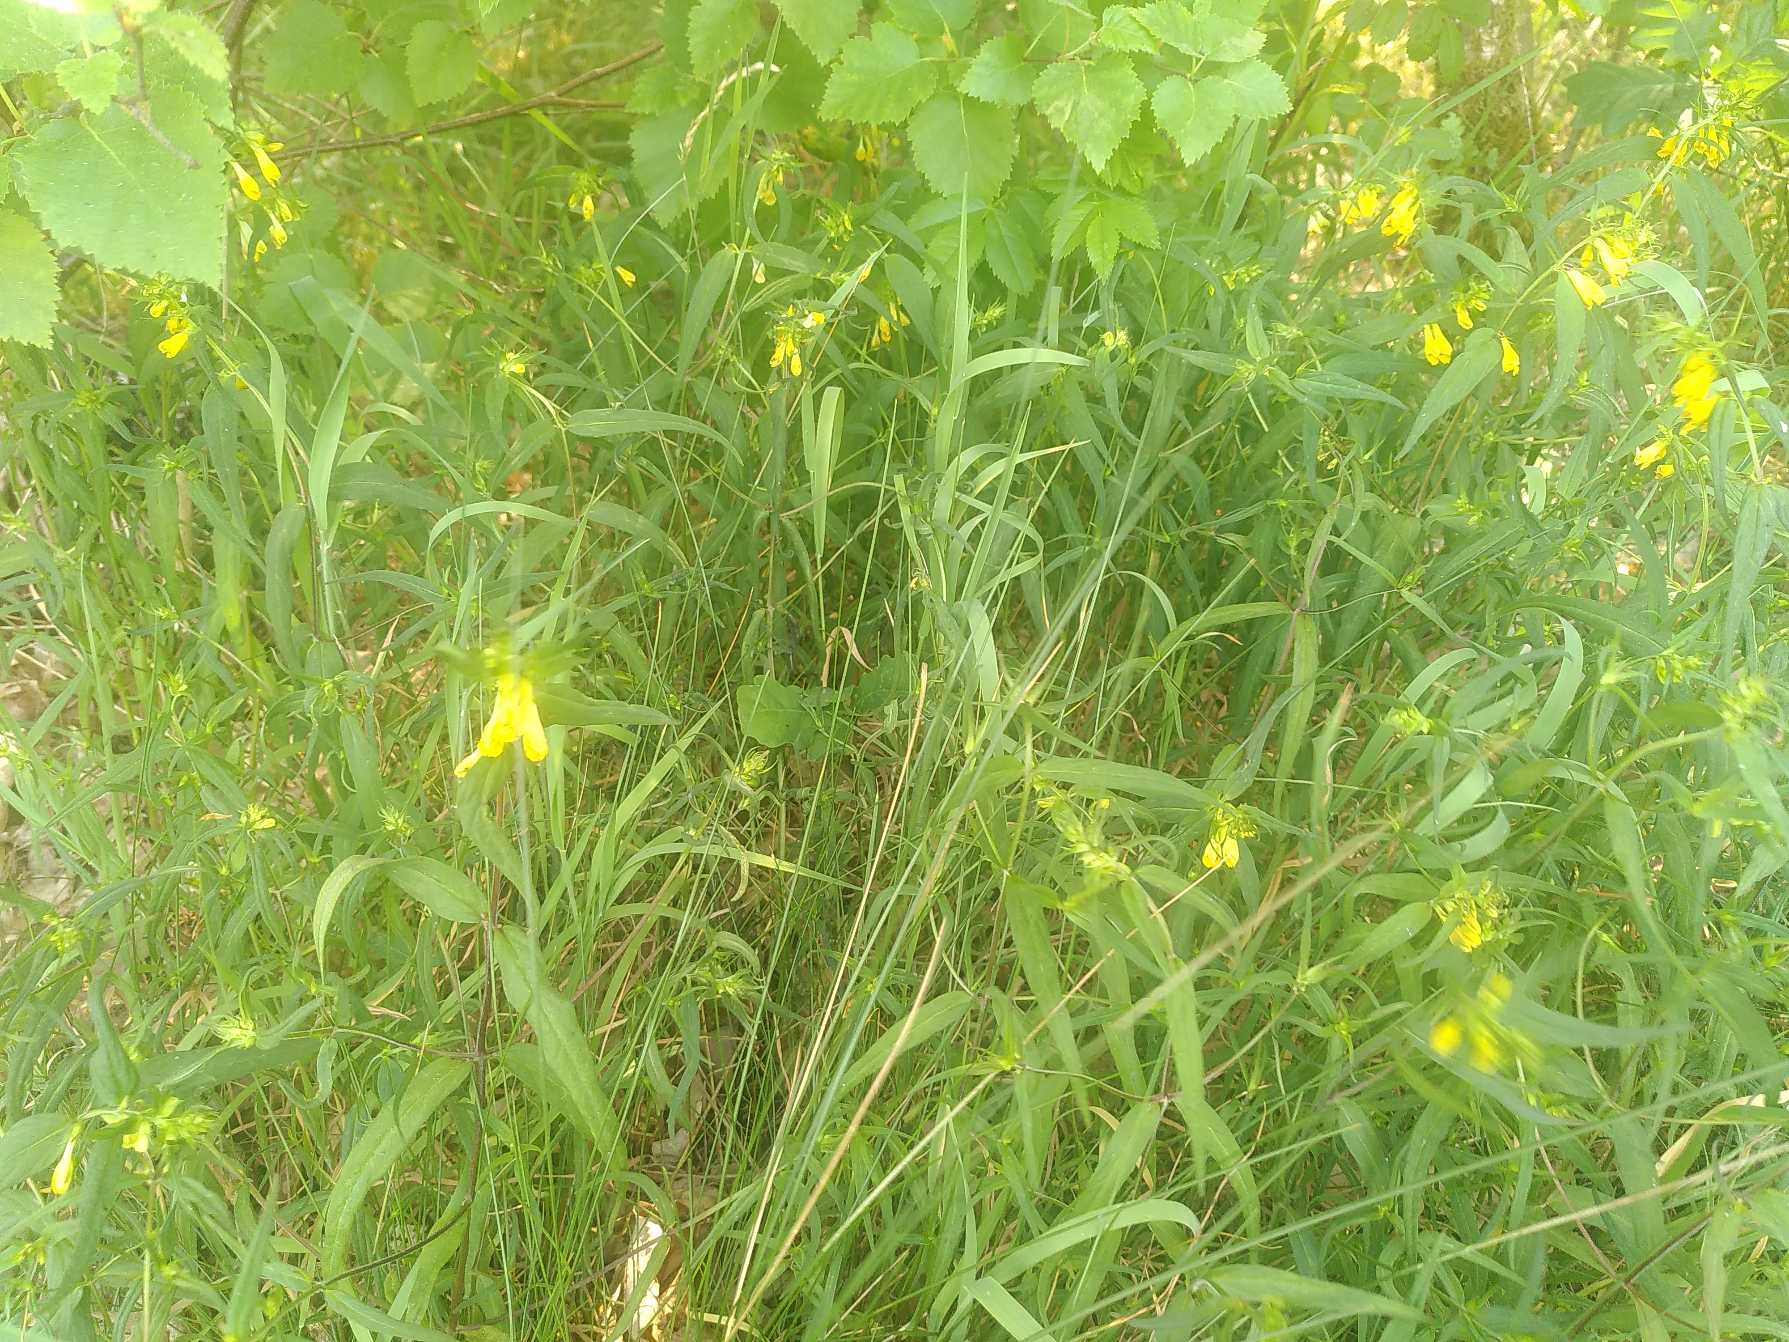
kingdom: Plantae
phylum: Tracheophyta
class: Magnoliopsida
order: Lamiales
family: Orobanchaceae
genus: Melampyrum
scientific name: Melampyrum pratense
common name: Almindelig kohvede
